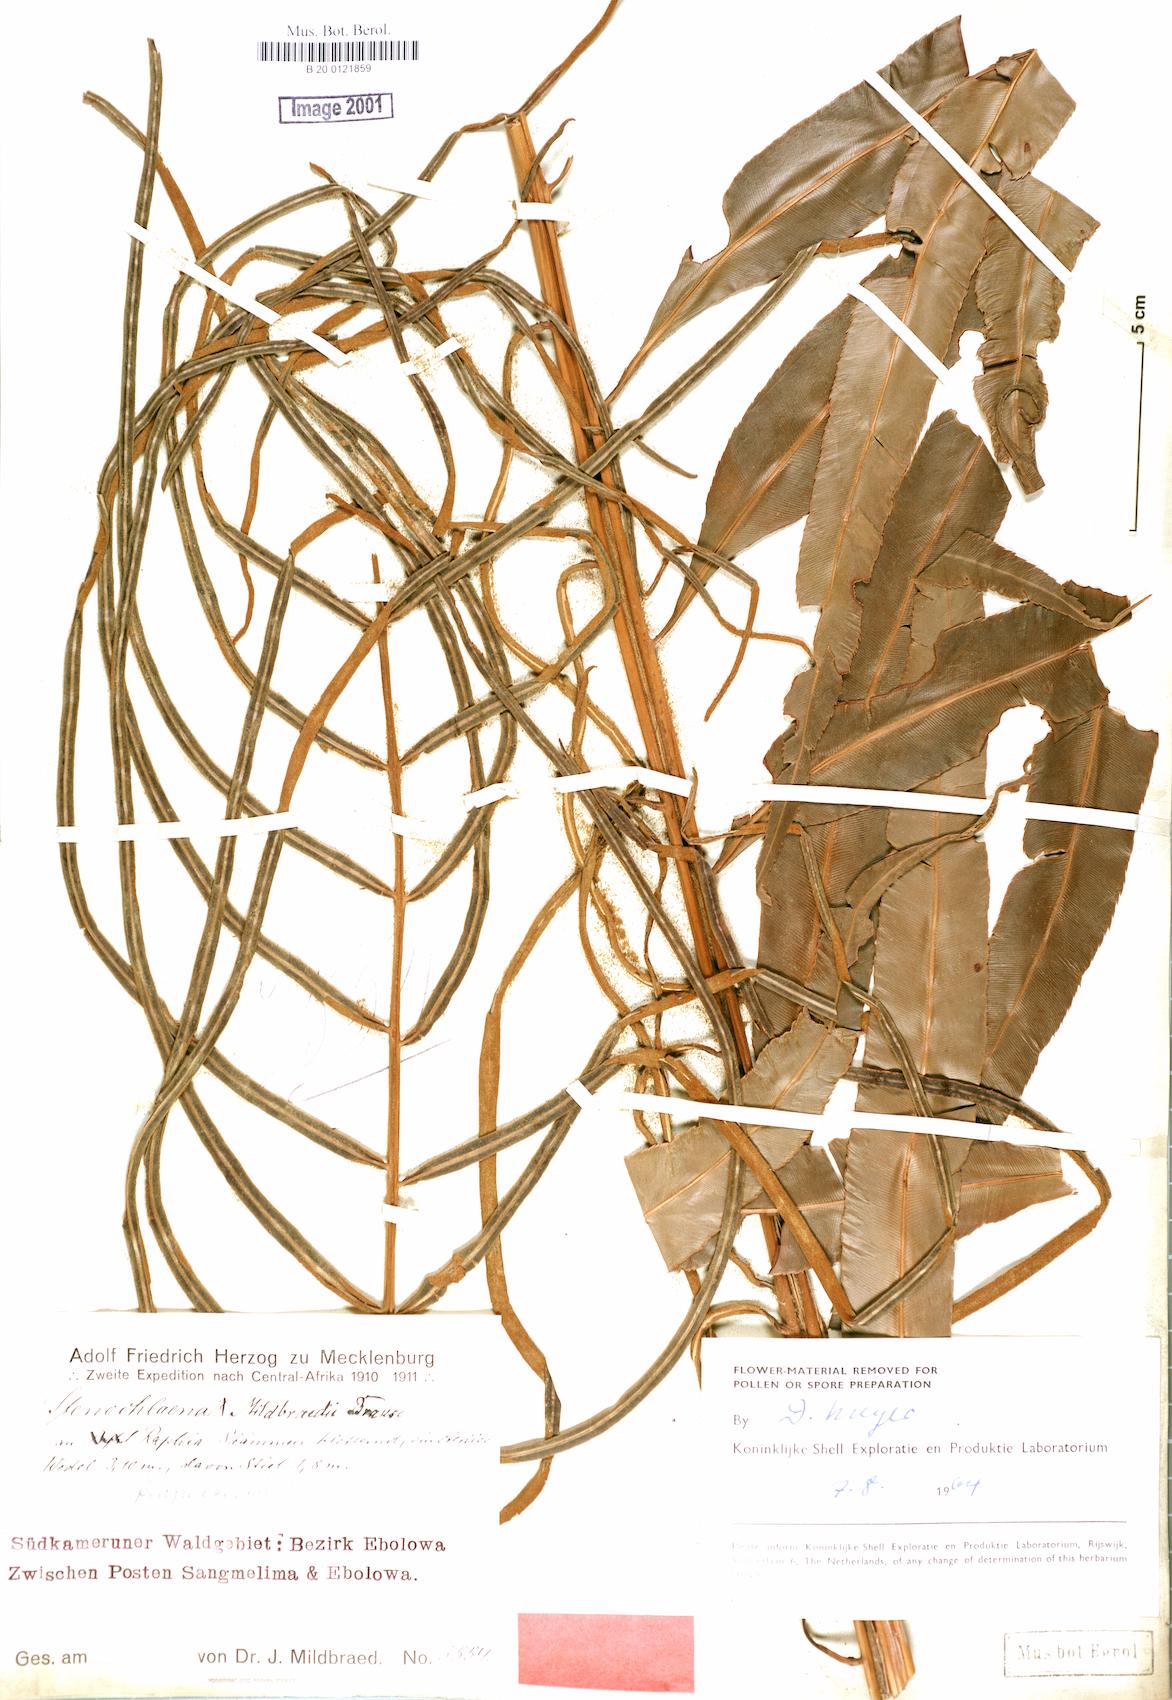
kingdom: Plantae
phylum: Tracheophyta
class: Polypodiopsida
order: Polypodiales
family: Blechnaceae
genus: Stenochlaena
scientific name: Stenochlaena tenuifolia
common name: Giant vine fern
